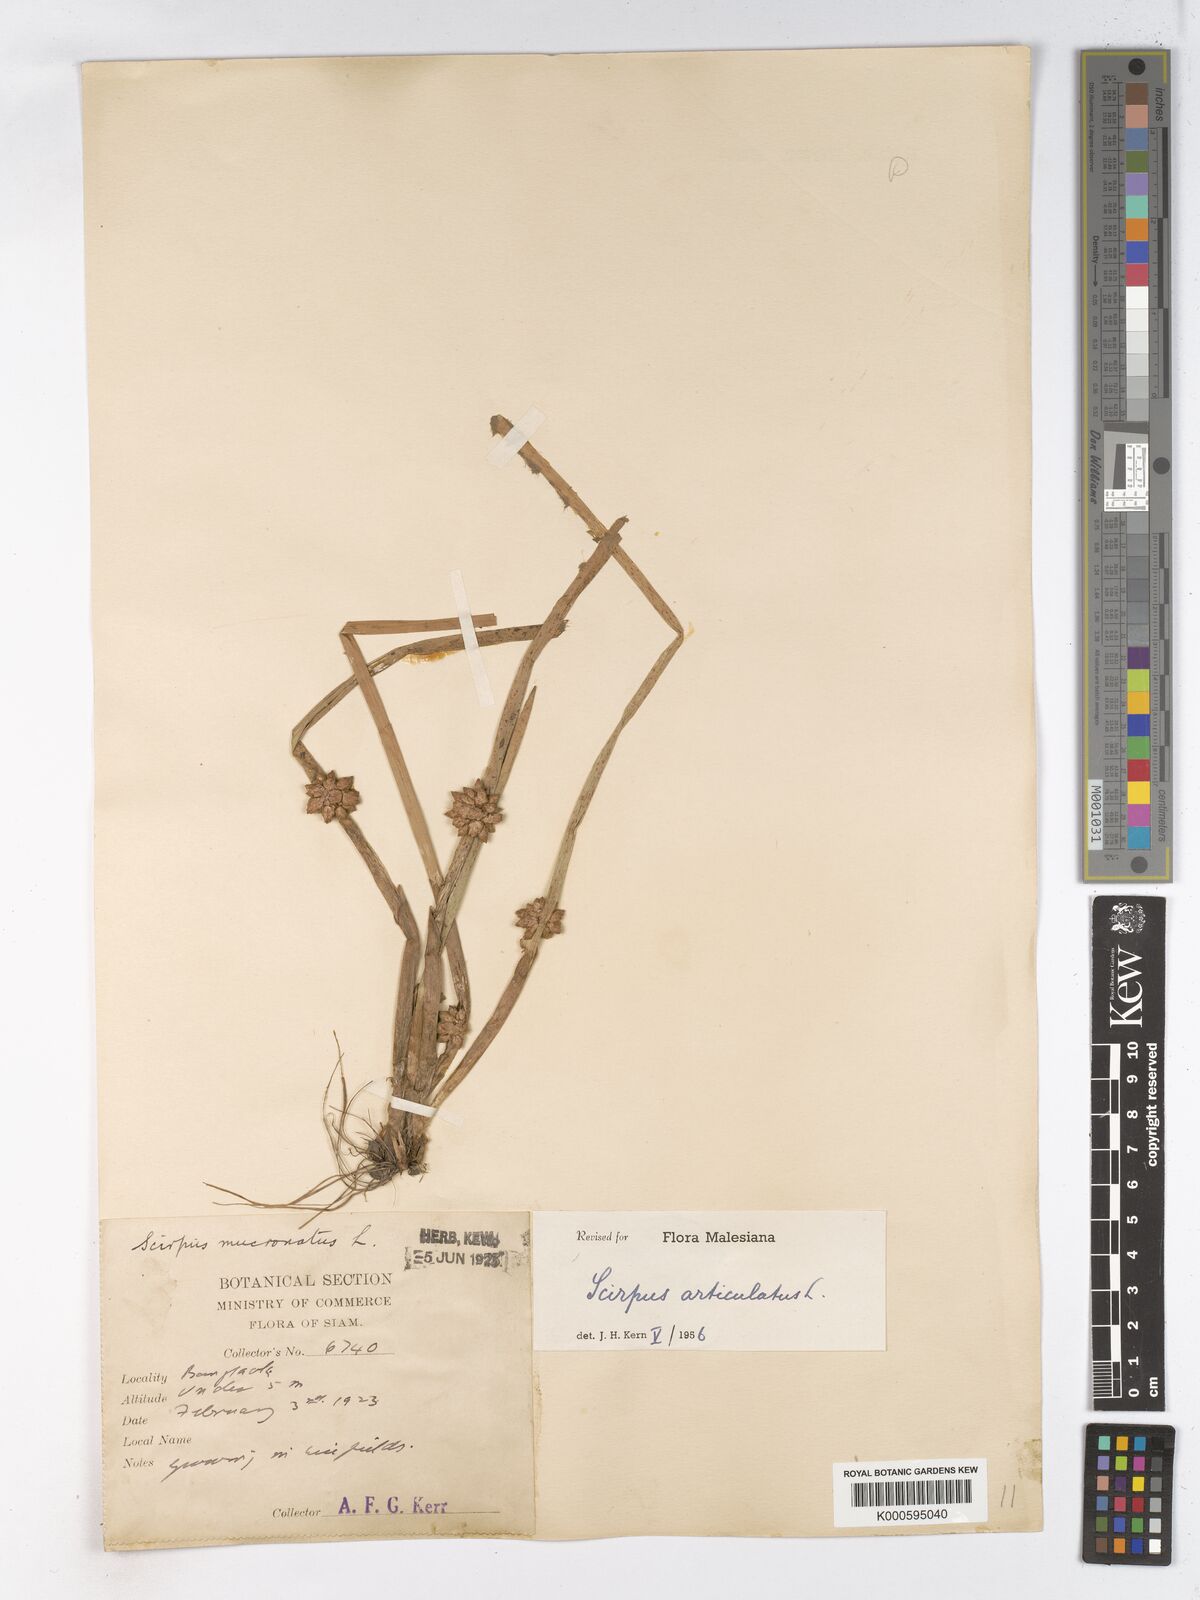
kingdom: Plantae
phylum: Tracheophyta
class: Liliopsida
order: Poales
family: Cyperaceae
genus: Schoenoplectiella
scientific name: Schoenoplectiella articulata
